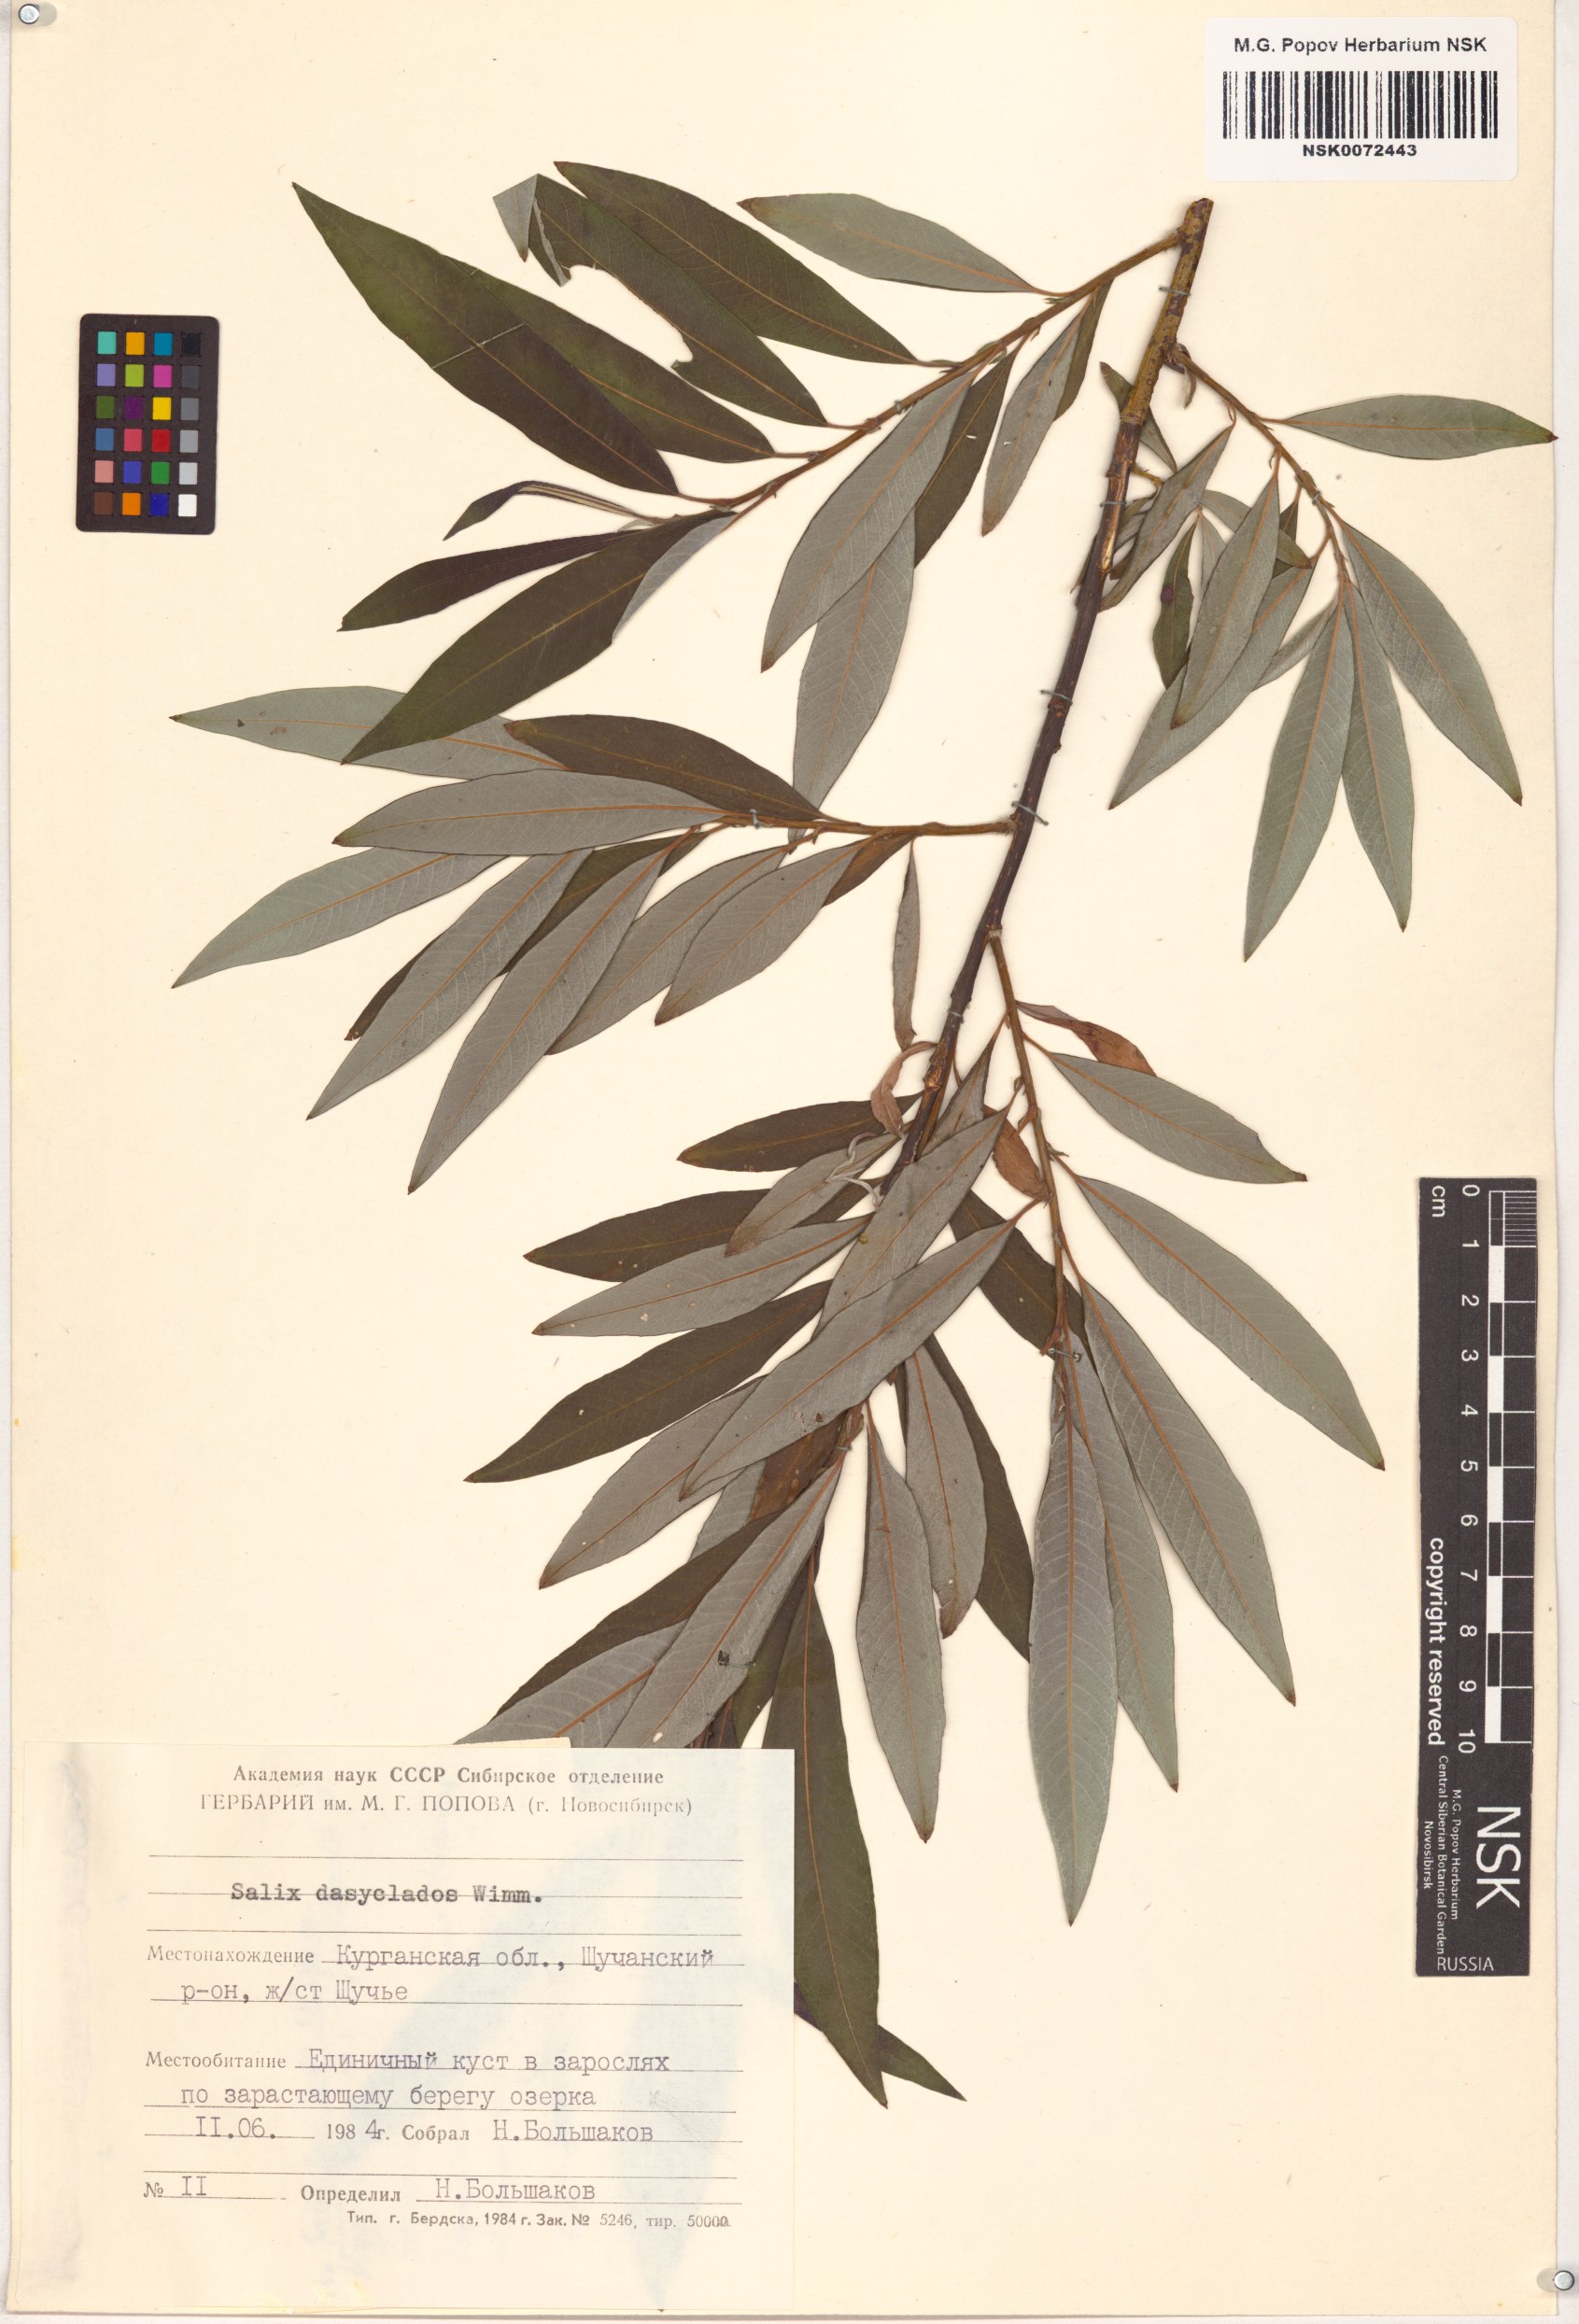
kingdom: Plantae
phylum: Tracheophyta
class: Magnoliopsida
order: Malpighiales
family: Salicaceae
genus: Salix
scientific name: Salix gmelinii
